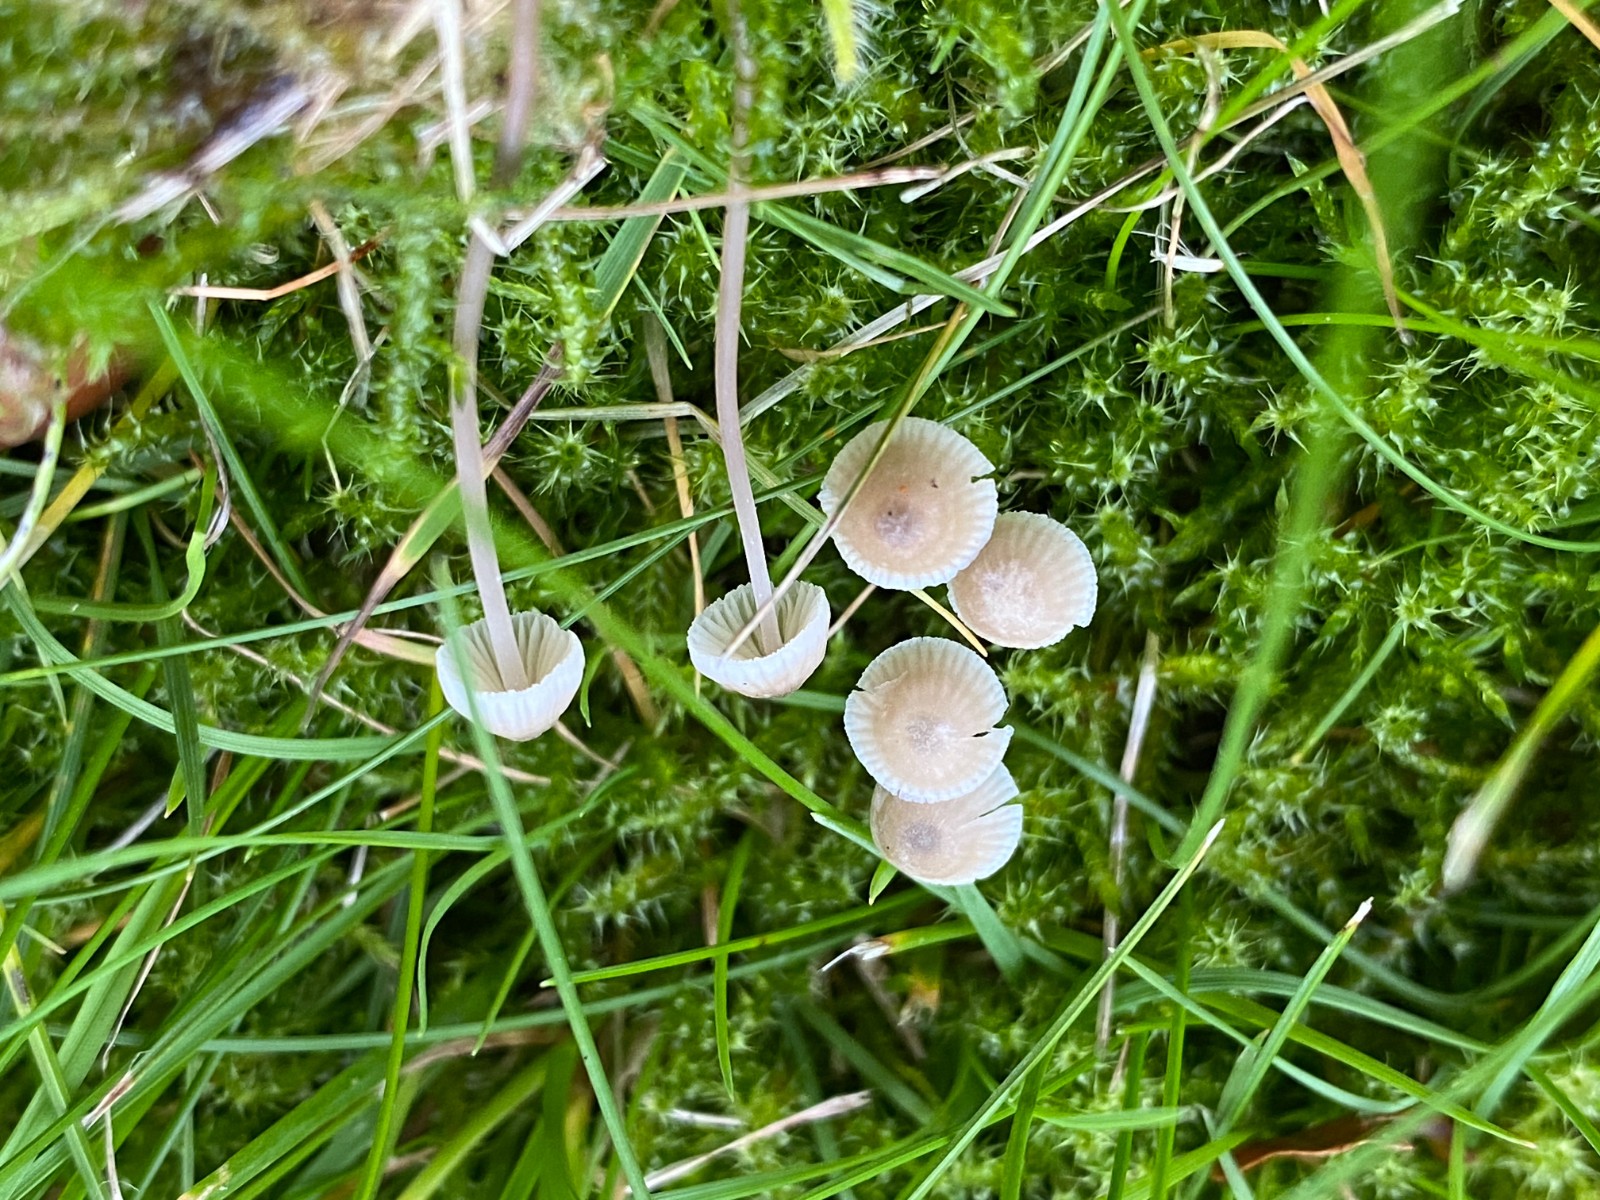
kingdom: Fungi
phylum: Basidiomycota
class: Agaricomycetes
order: Agaricales
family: Mycenaceae
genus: Mycena
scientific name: Mycena flavescens
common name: grågul huesvamp
